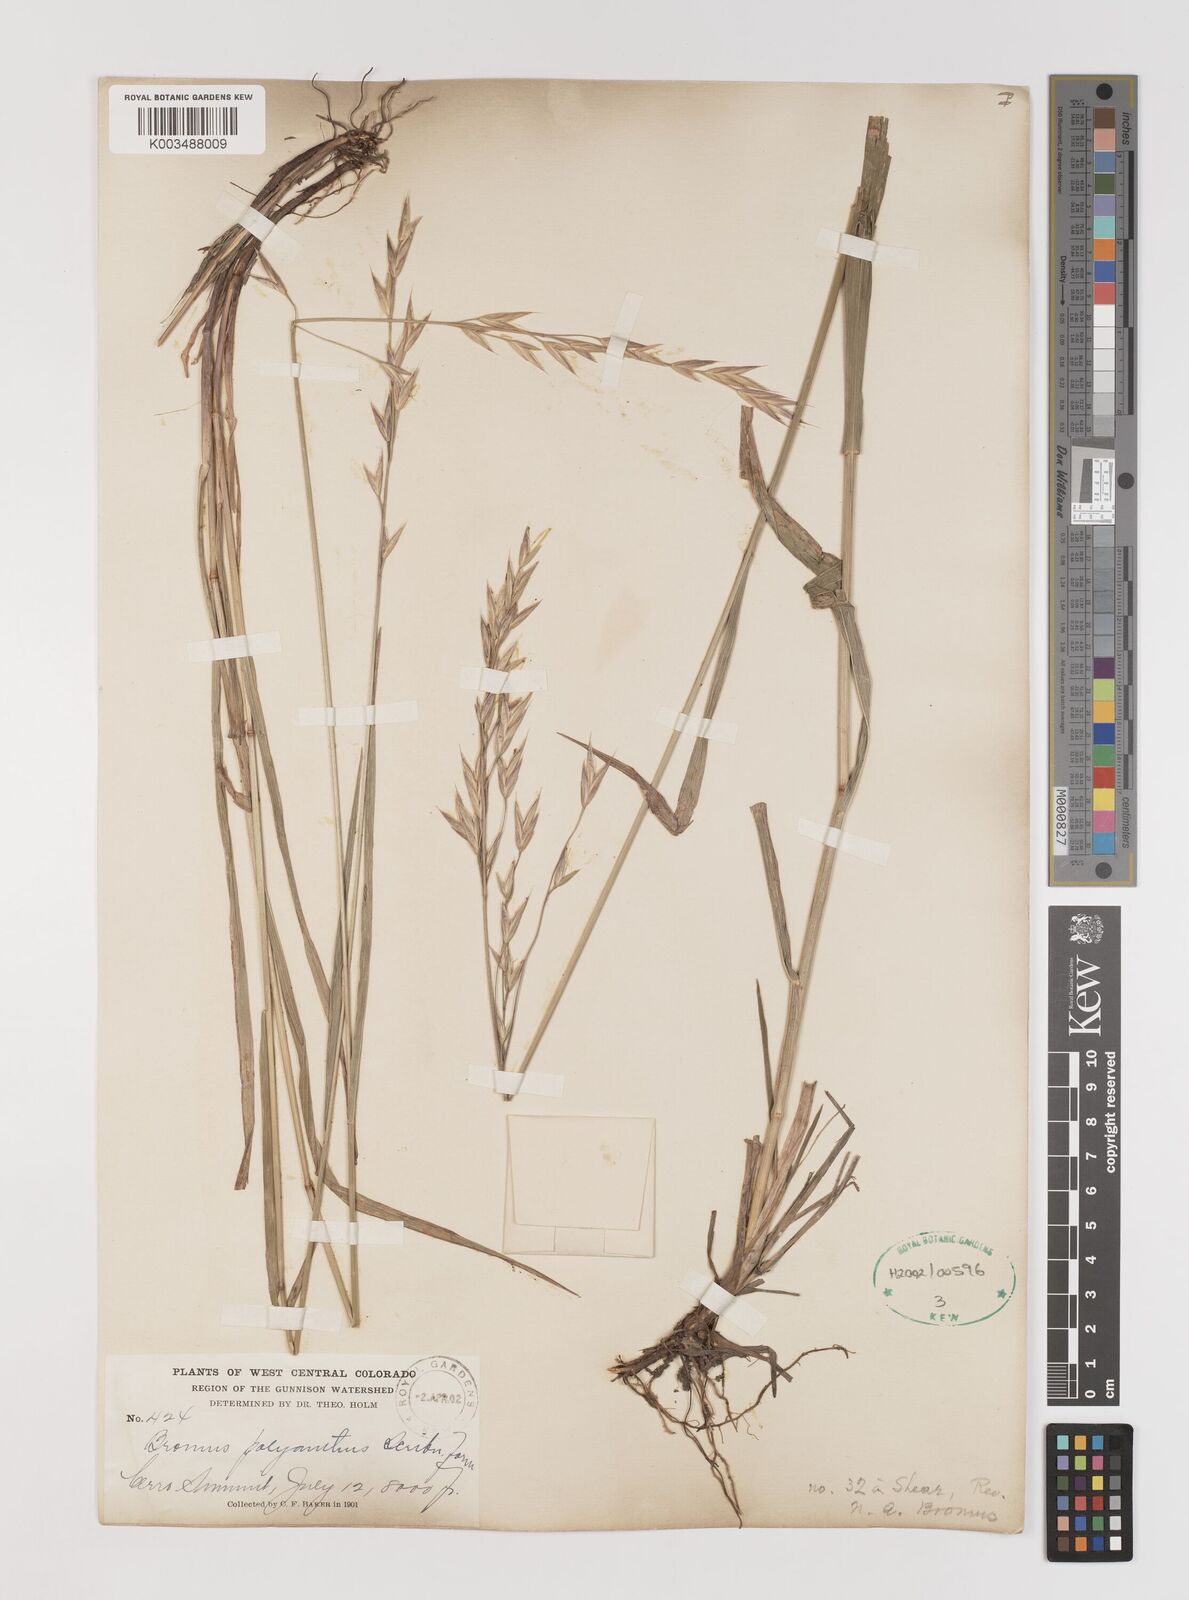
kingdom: Plantae
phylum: Tracheophyta
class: Liliopsida
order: Poales
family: Poaceae
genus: Bromus
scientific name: Bromus polyanthus
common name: Great basin brome
